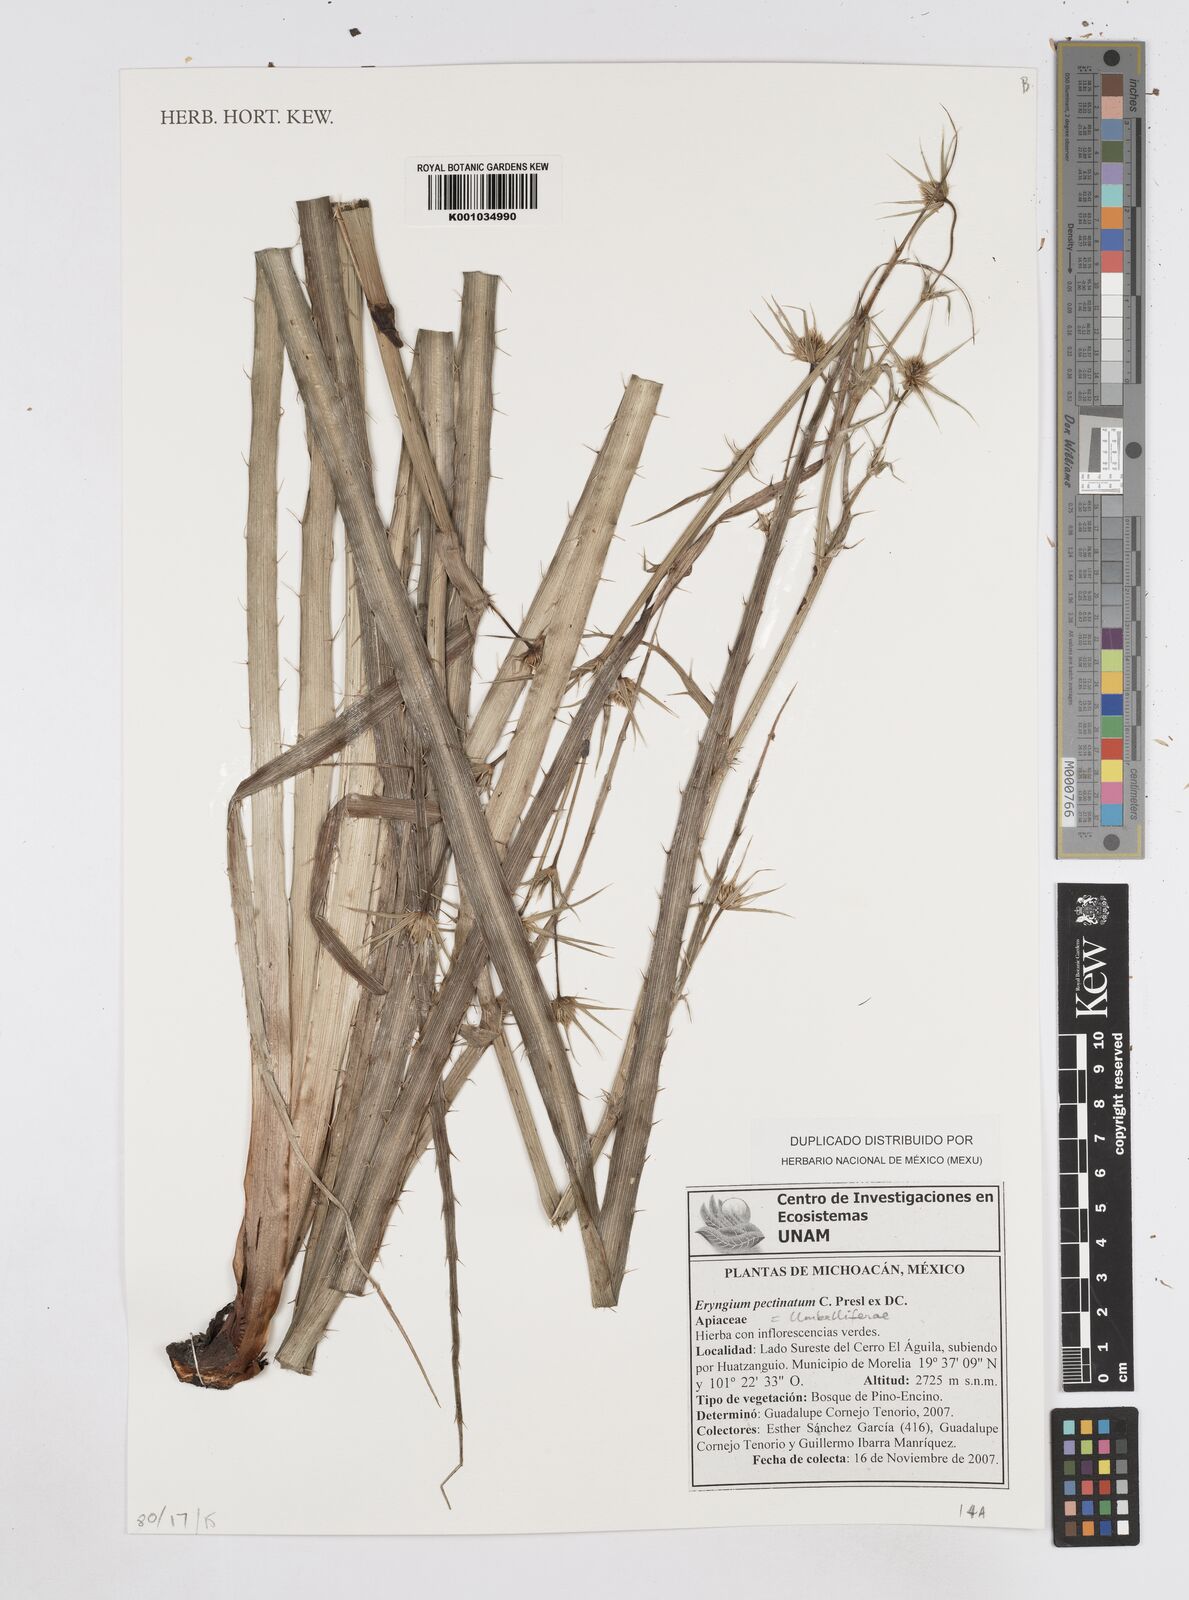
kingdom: Plantae
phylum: Tracheophyta
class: Magnoliopsida
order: Apiales
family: Apiaceae
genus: Eryngium
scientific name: Eryngium pectinatum
